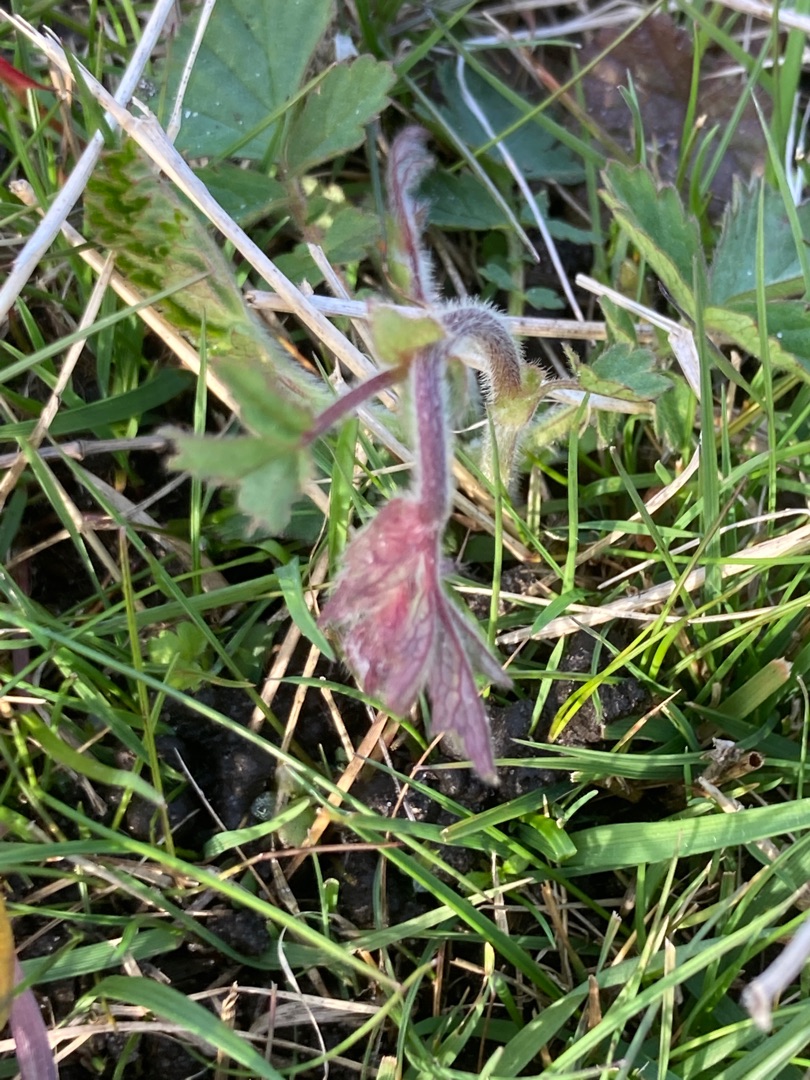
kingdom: Plantae
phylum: Tracheophyta
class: Magnoliopsida
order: Rosales
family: Rosaceae
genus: Geum
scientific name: Geum rivale
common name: Eng-nellikerod
